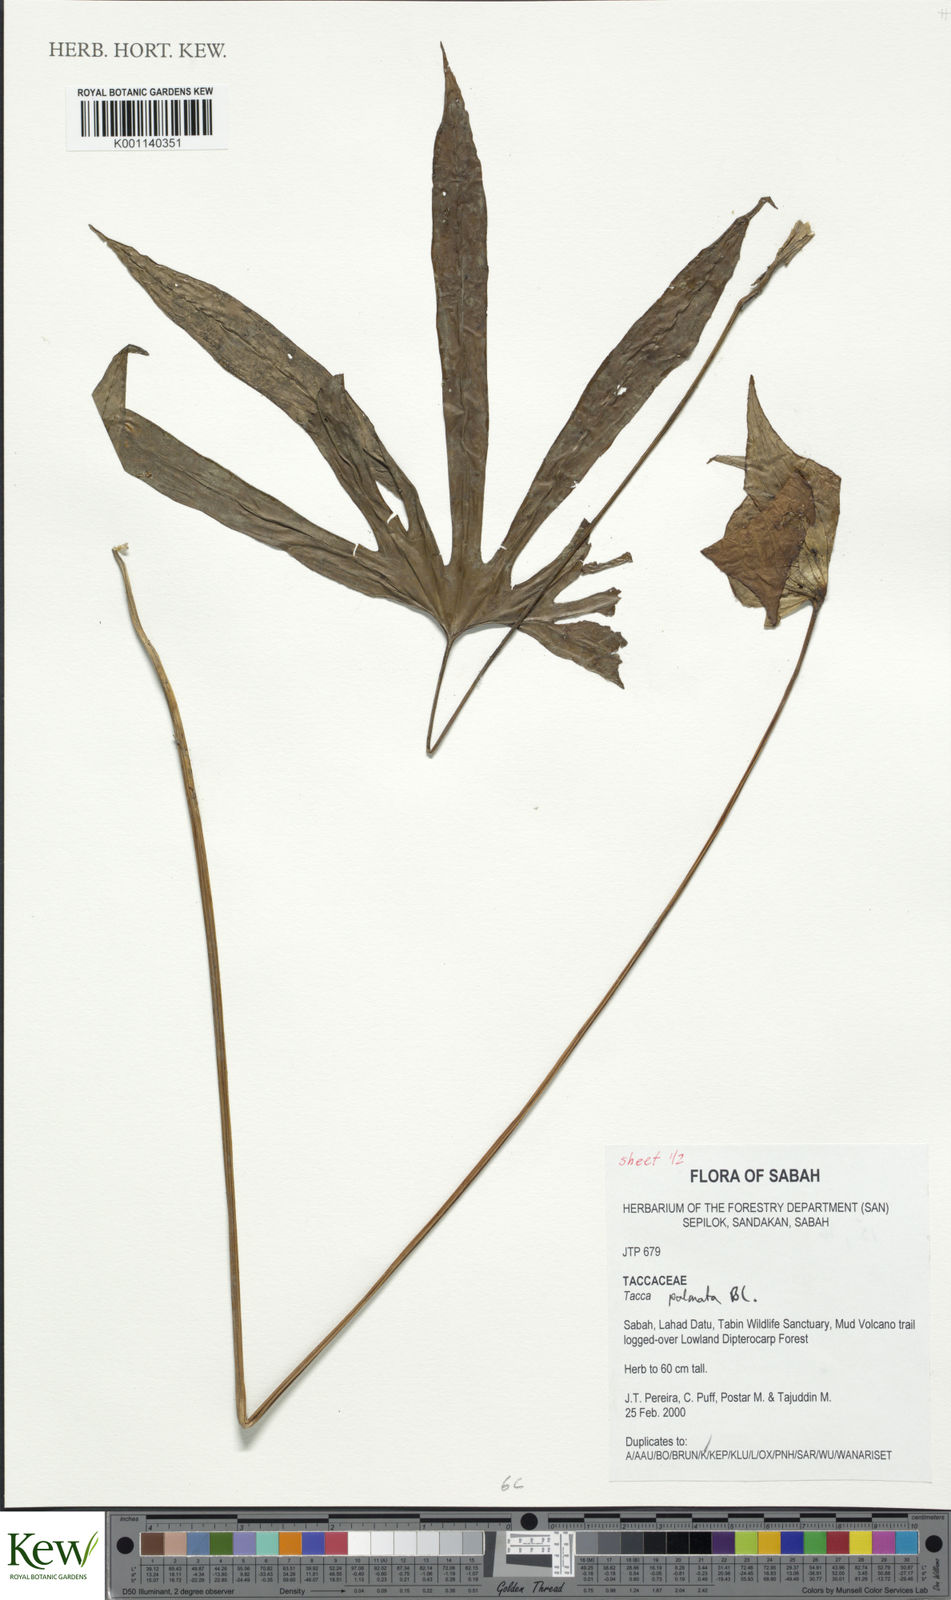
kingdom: Plantae
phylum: Tracheophyta
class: Liliopsida
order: Dioscoreales
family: Dioscoreaceae
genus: Tacca
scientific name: Tacca palmata
